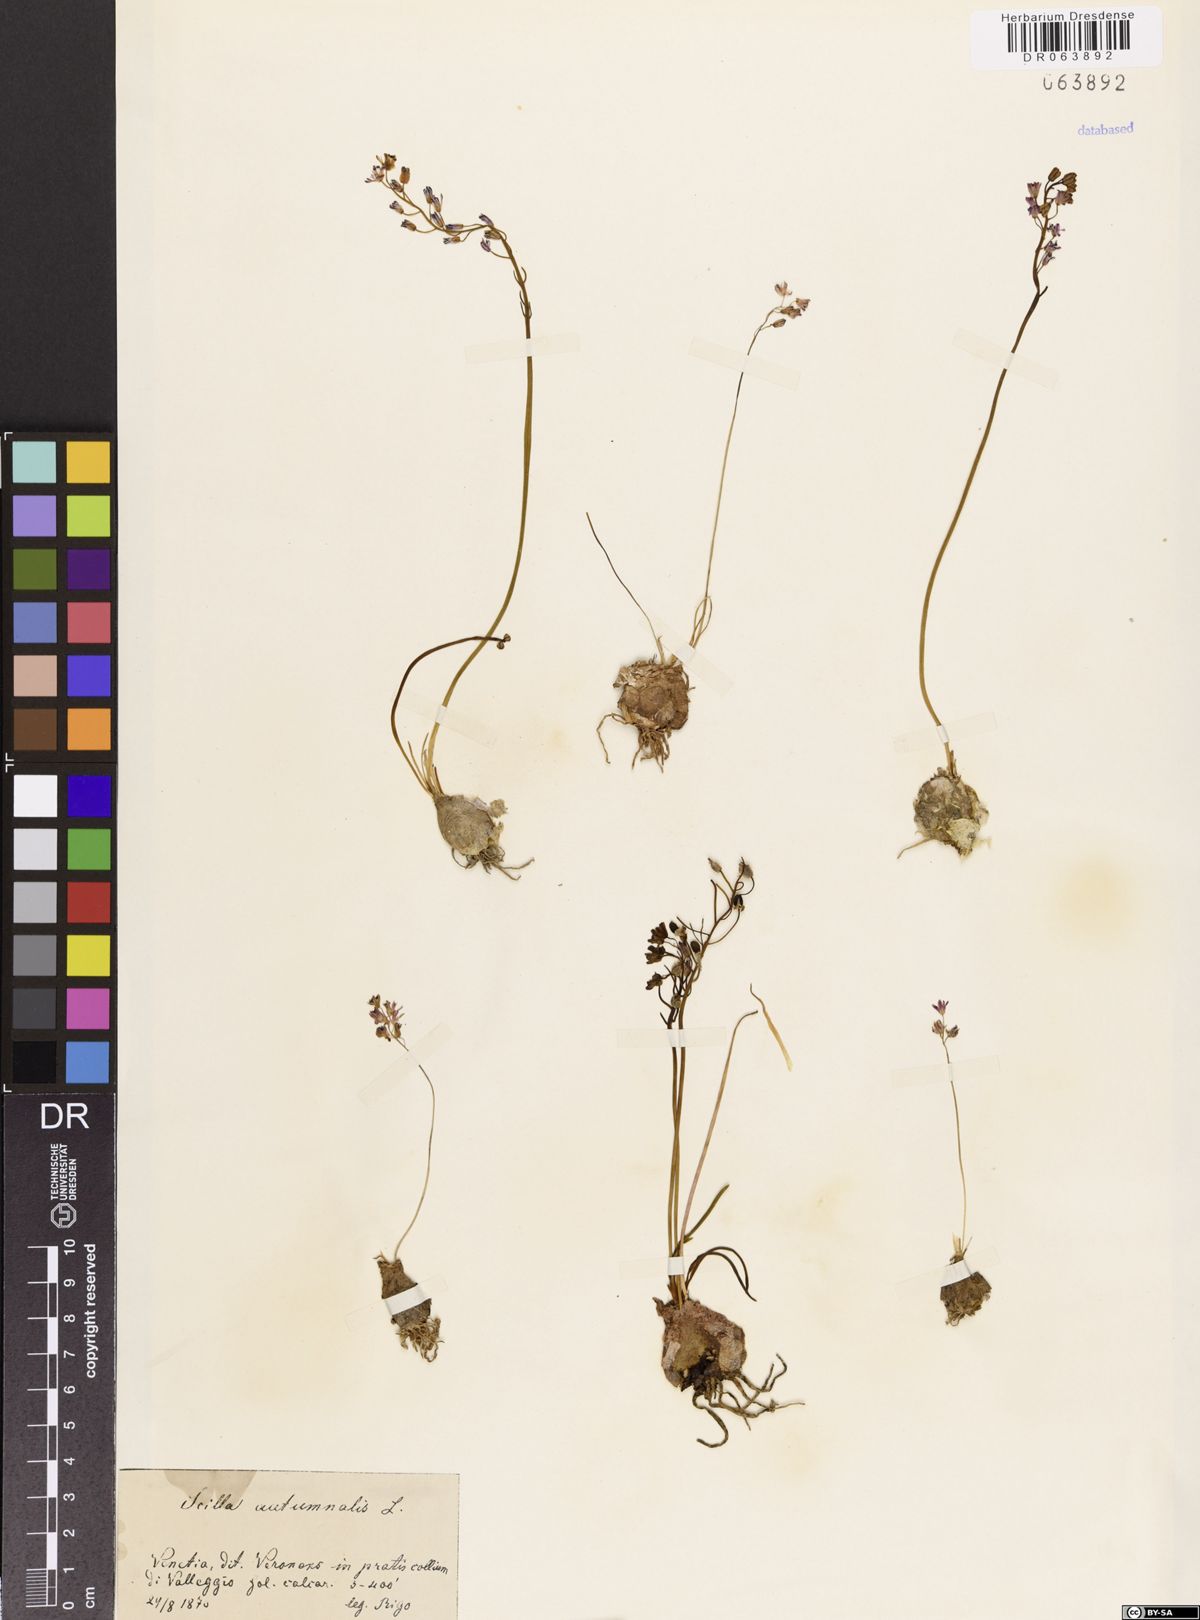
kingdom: Plantae
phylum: Tracheophyta
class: Liliopsida
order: Asparagales
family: Asparagaceae
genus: Prospero
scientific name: Prospero autumnale
